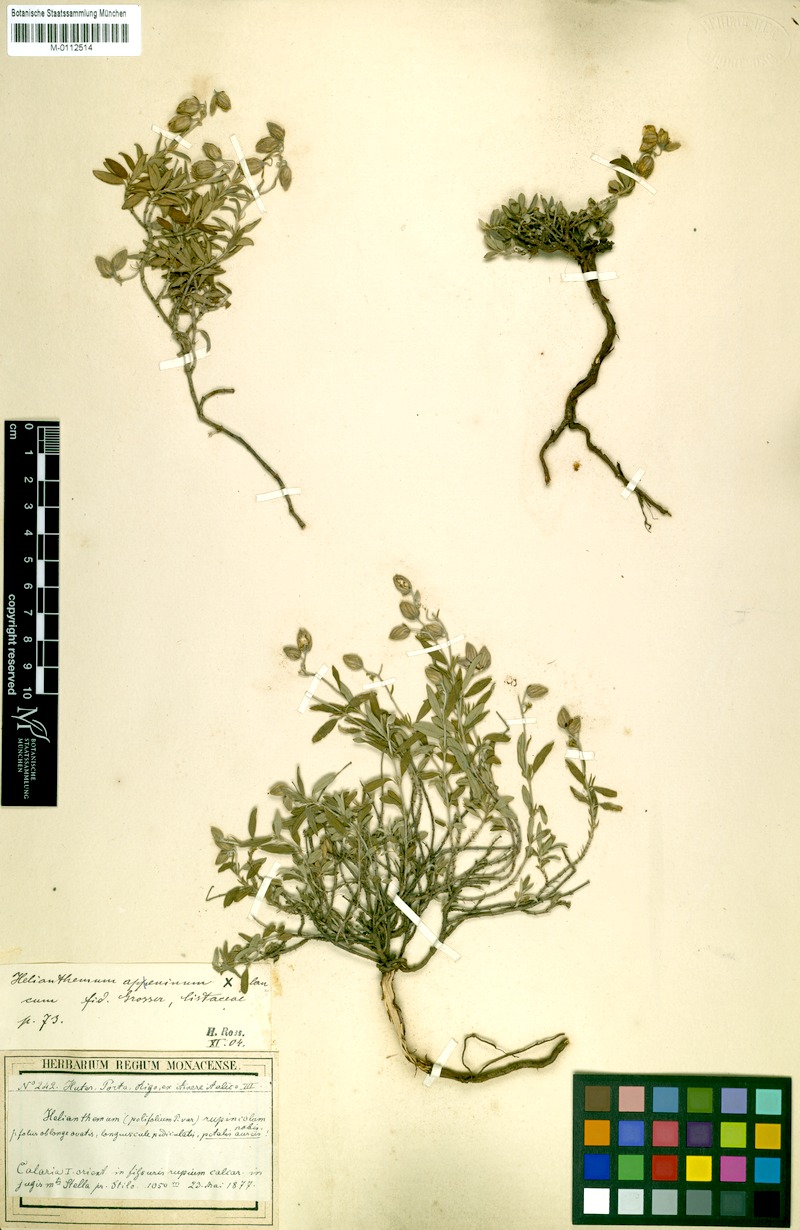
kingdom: Plantae
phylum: Tracheophyta
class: Magnoliopsida
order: Malvales
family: Cistaceae
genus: Helianthemum
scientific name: Helianthemum rupincola
